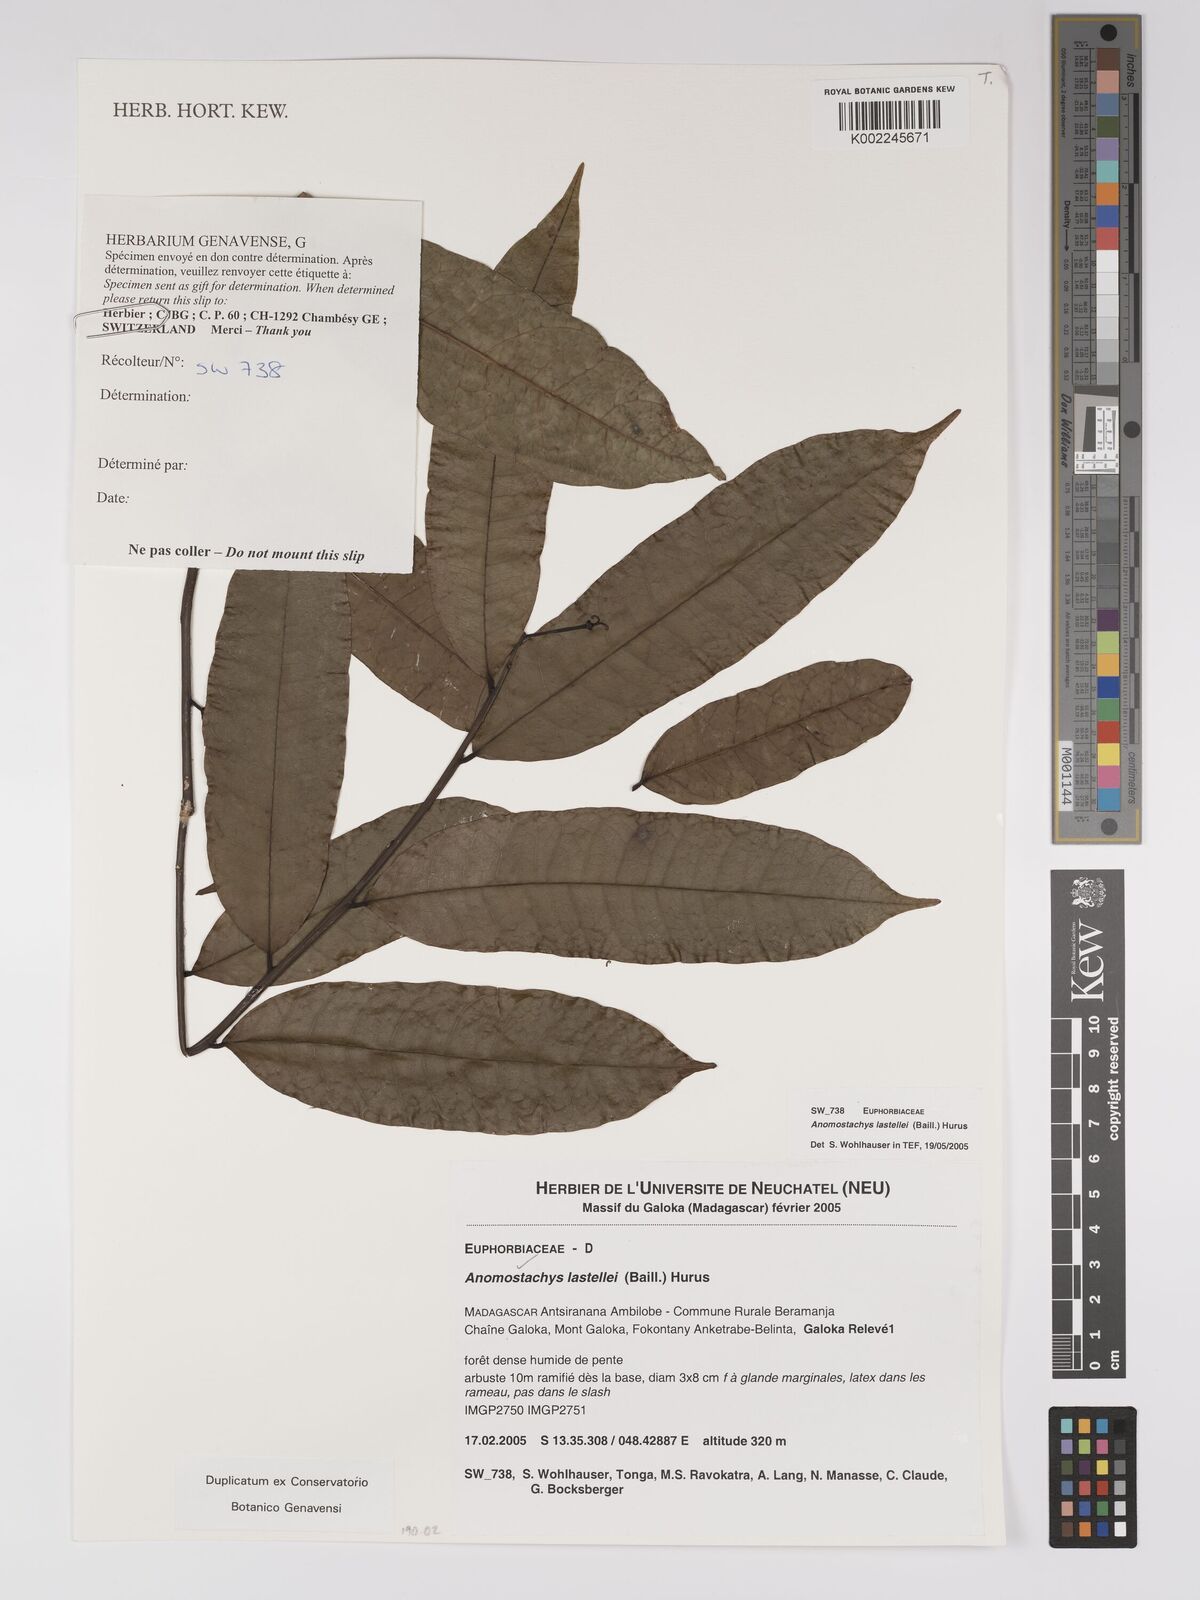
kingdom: Plantae
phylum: Tracheophyta
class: Magnoliopsida
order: Malpighiales
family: Euphorbiaceae
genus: Anomostachys
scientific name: Anomostachys lastellei
